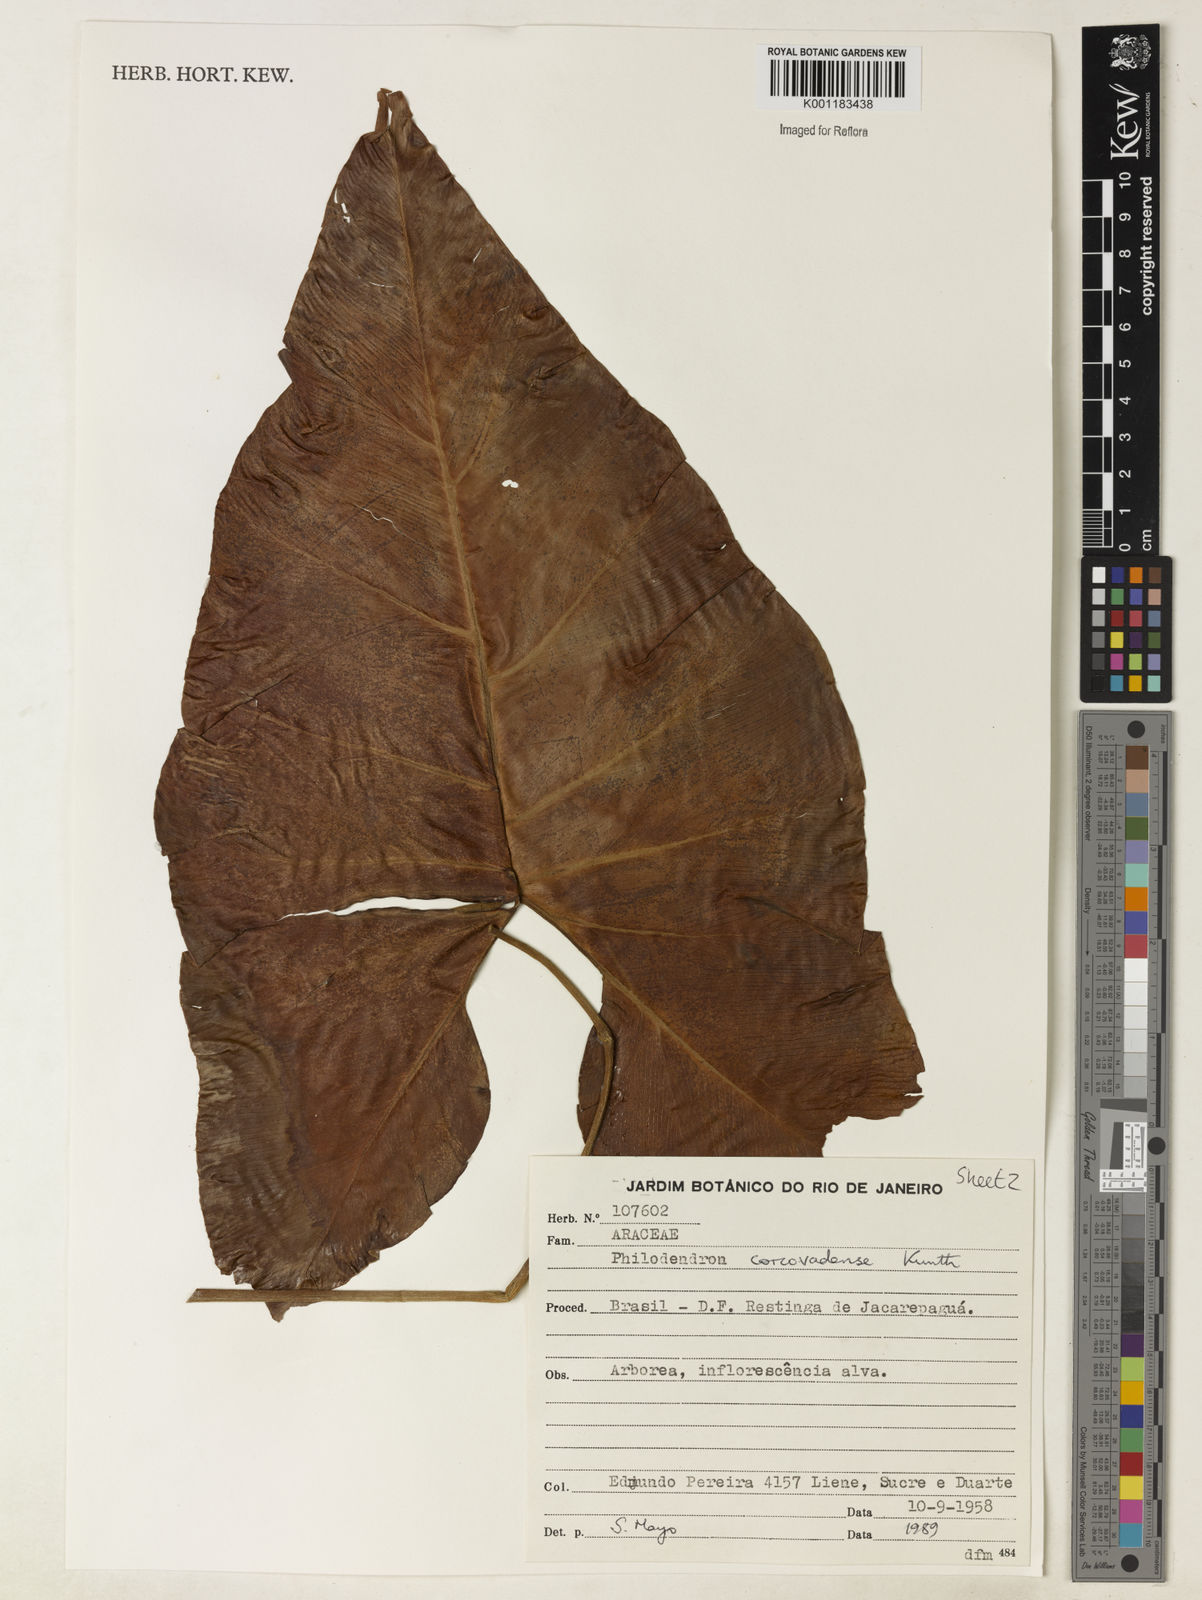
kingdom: Plantae
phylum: Tracheophyta
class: Liliopsida
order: Alismatales
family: Araceae
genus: Thaumatophyllum
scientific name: Thaumatophyllum corcovadense
